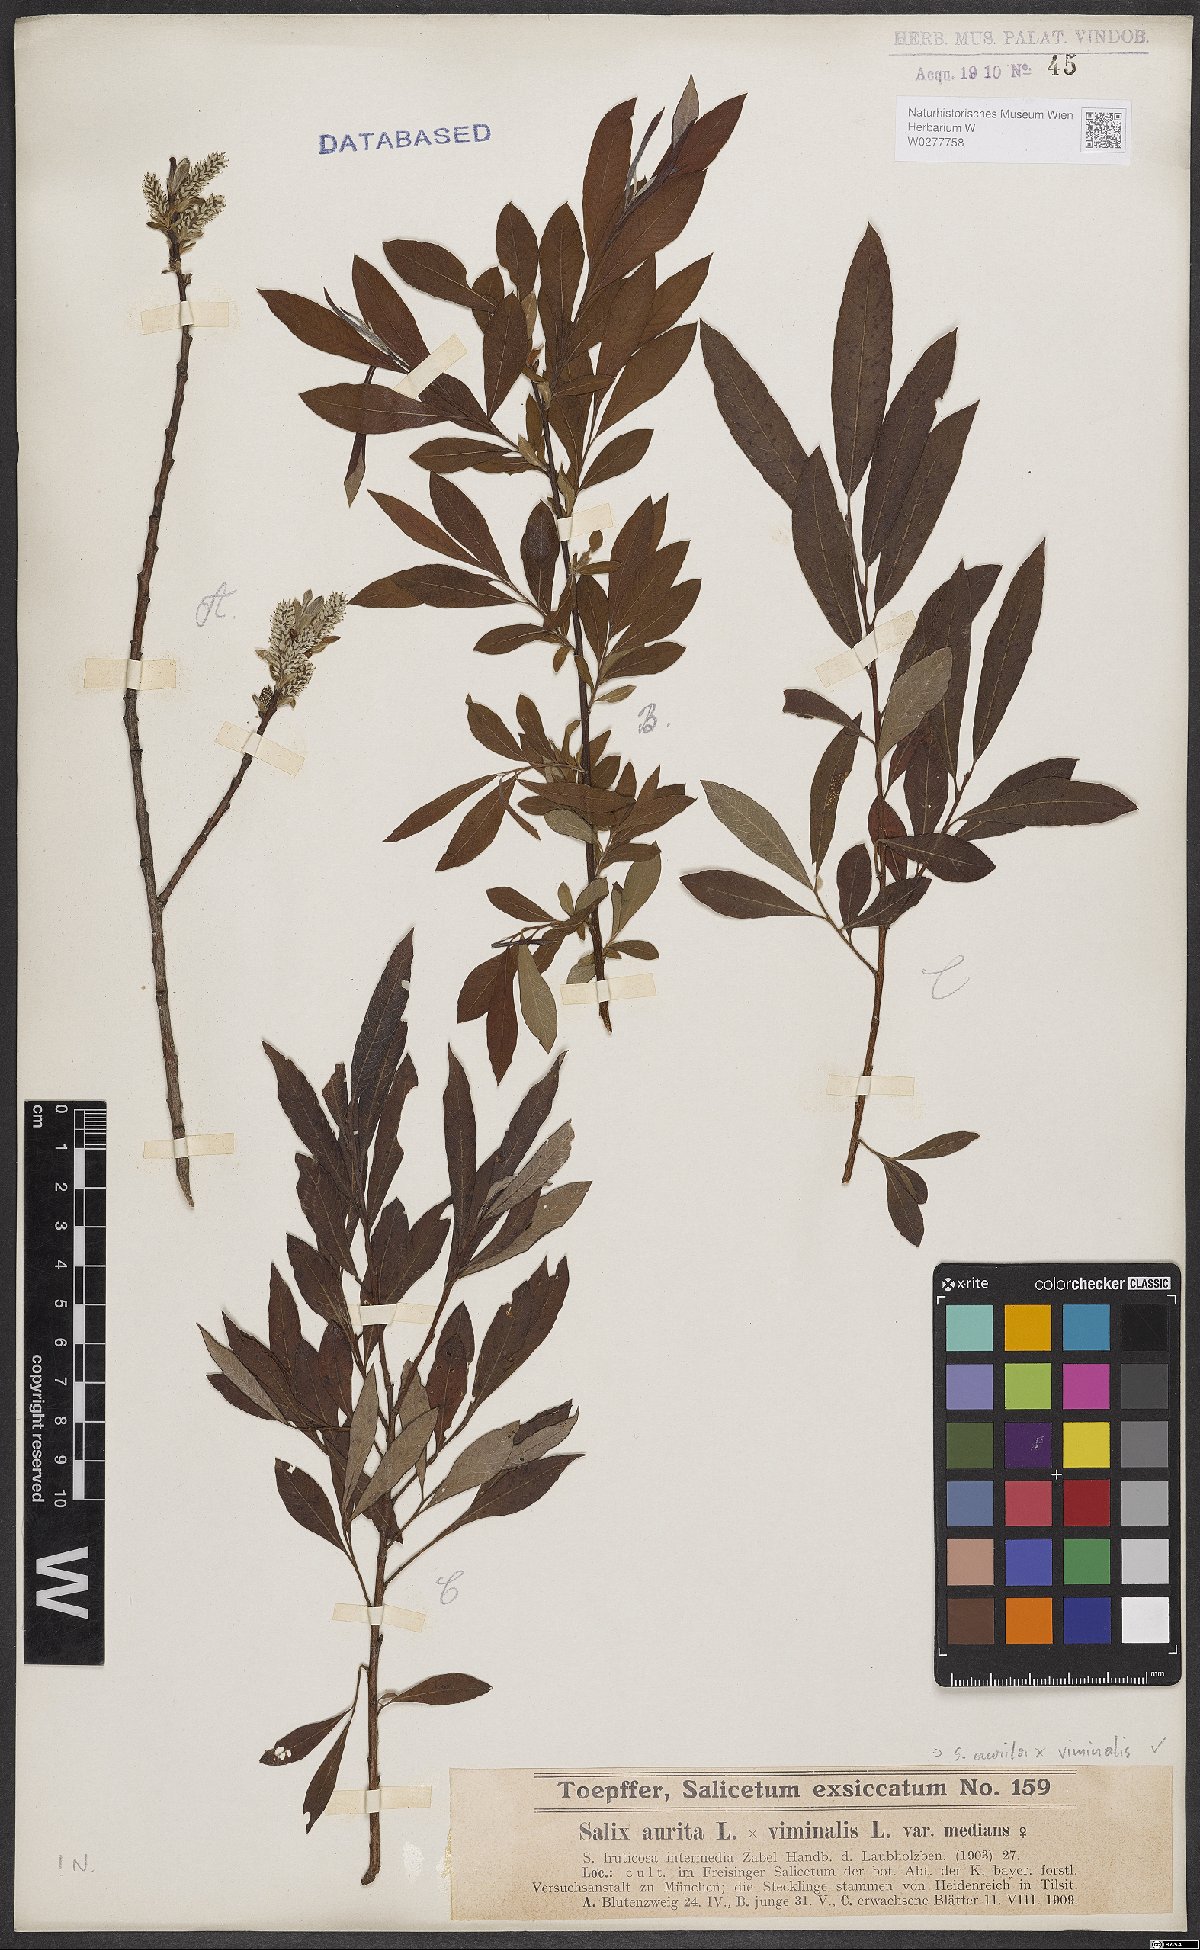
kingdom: Plantae
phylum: Tracheophyta
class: Magnoliopsida
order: Malpighiales
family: Salicaceae
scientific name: Salicaceae
